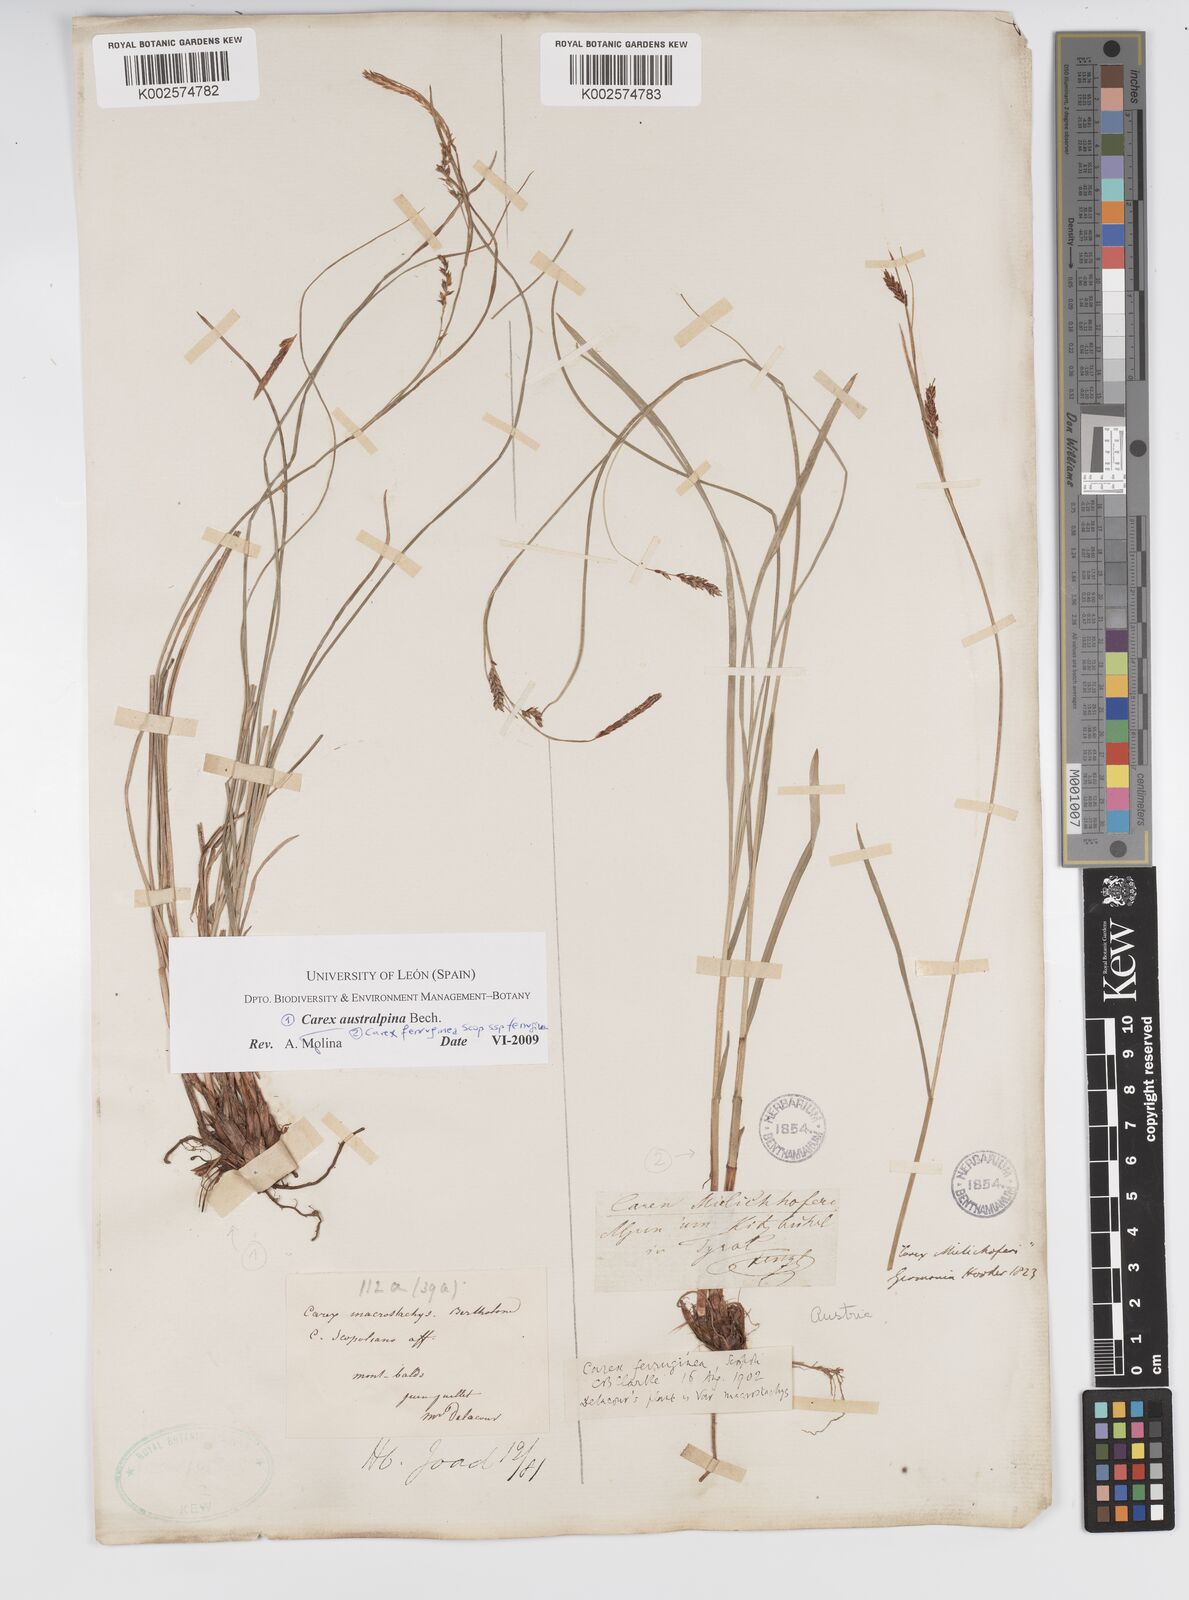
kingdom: Plantae
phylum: Tracheophyta
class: Liliopsida
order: Poales
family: Cyperaceae
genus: Carex
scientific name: Carex austroalpina
